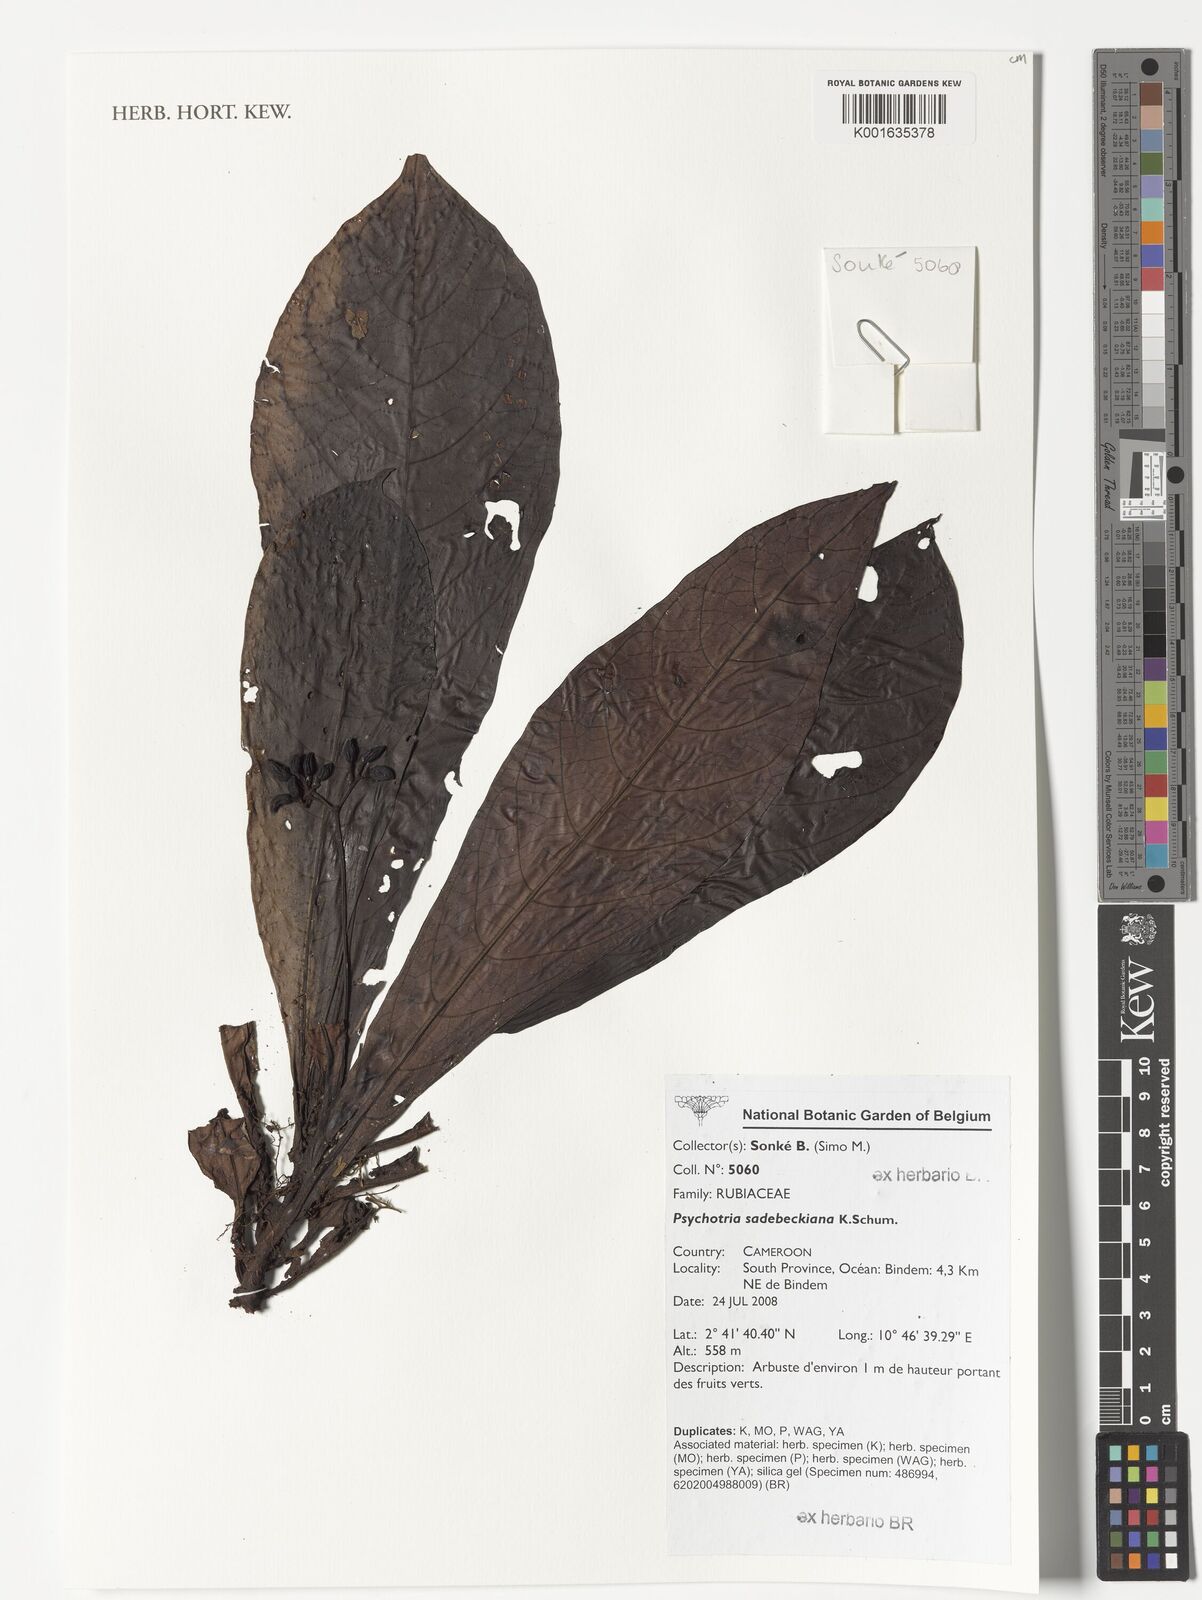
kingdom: Plantae
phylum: Tracheophyta
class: Magnoliopsida
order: Gentianales
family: Rubiaceae
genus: Psychotria
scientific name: Psychotria sadebeckiana
